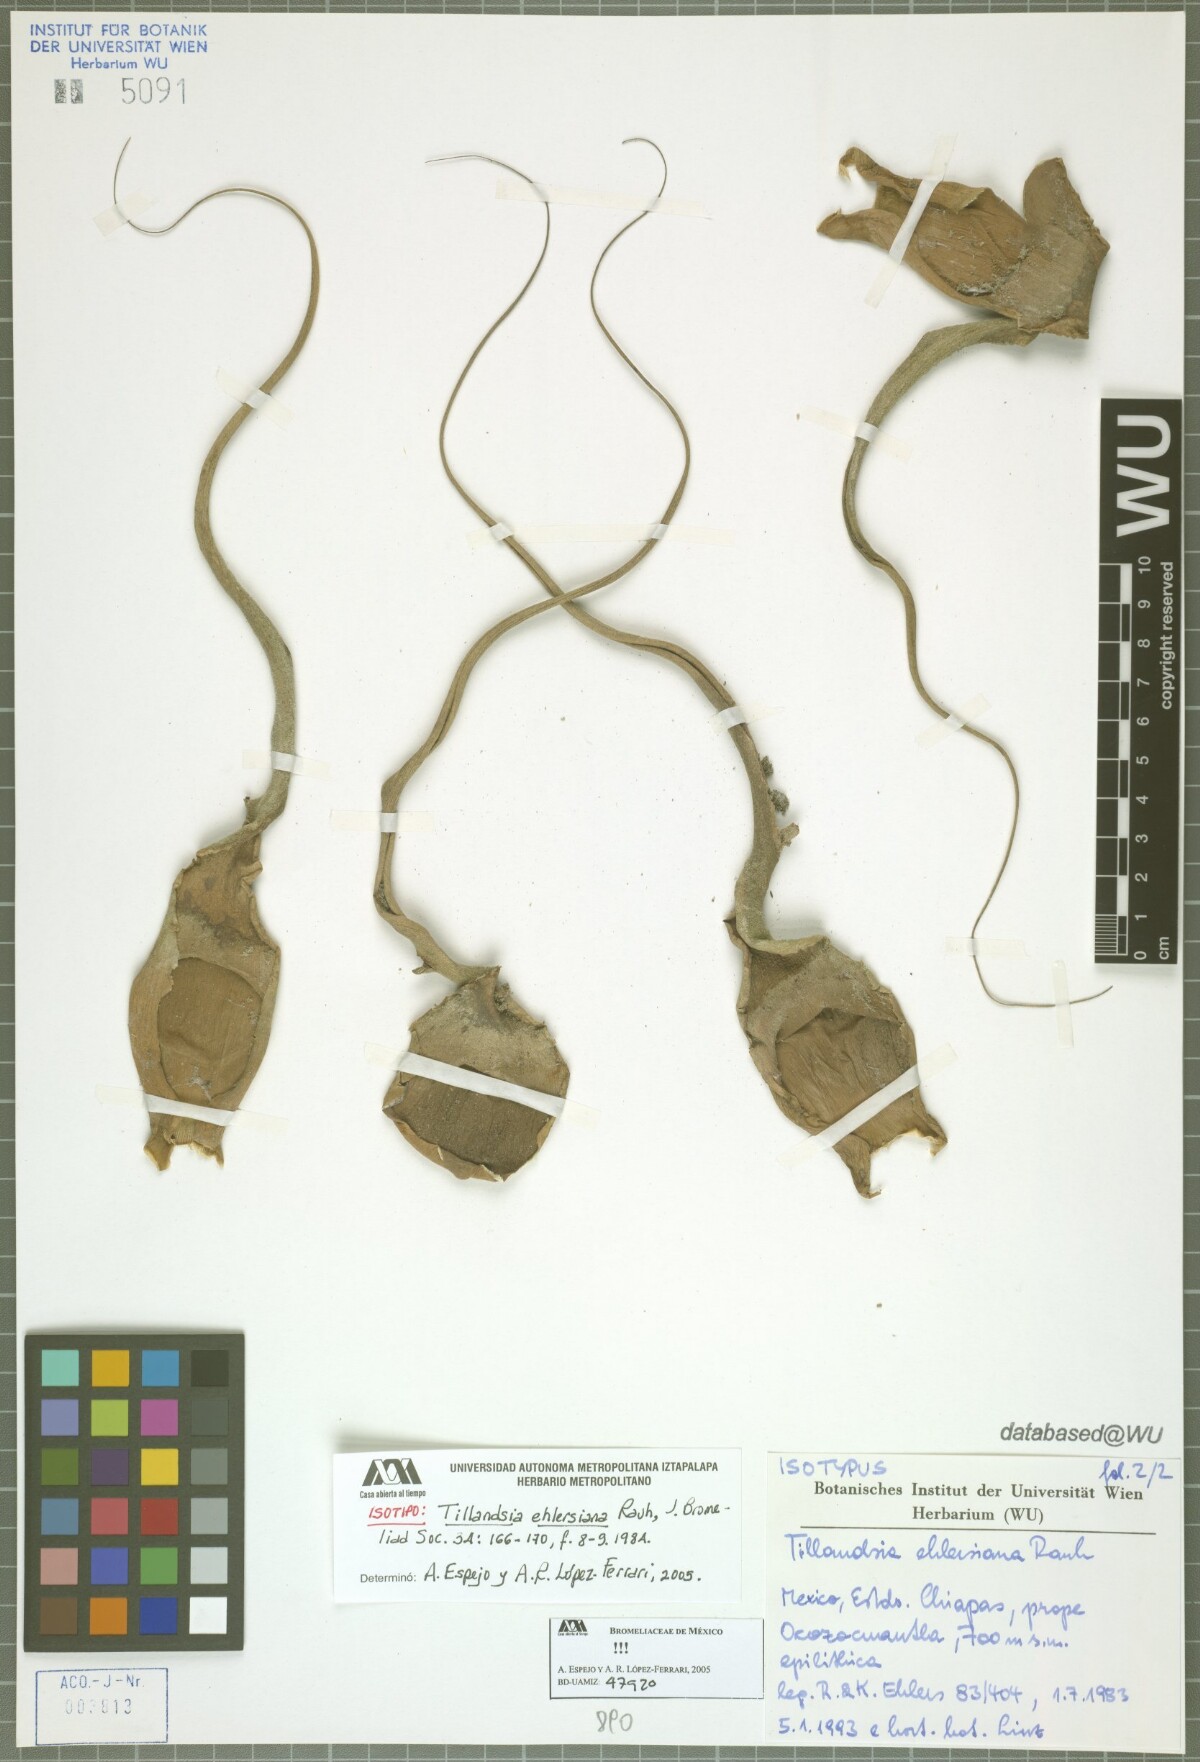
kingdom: Plantae
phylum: Tracheophyta
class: Liliopsida
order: Poales
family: Bromeliaceae
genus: Tillandsia
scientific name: Tillandsia seleriana
